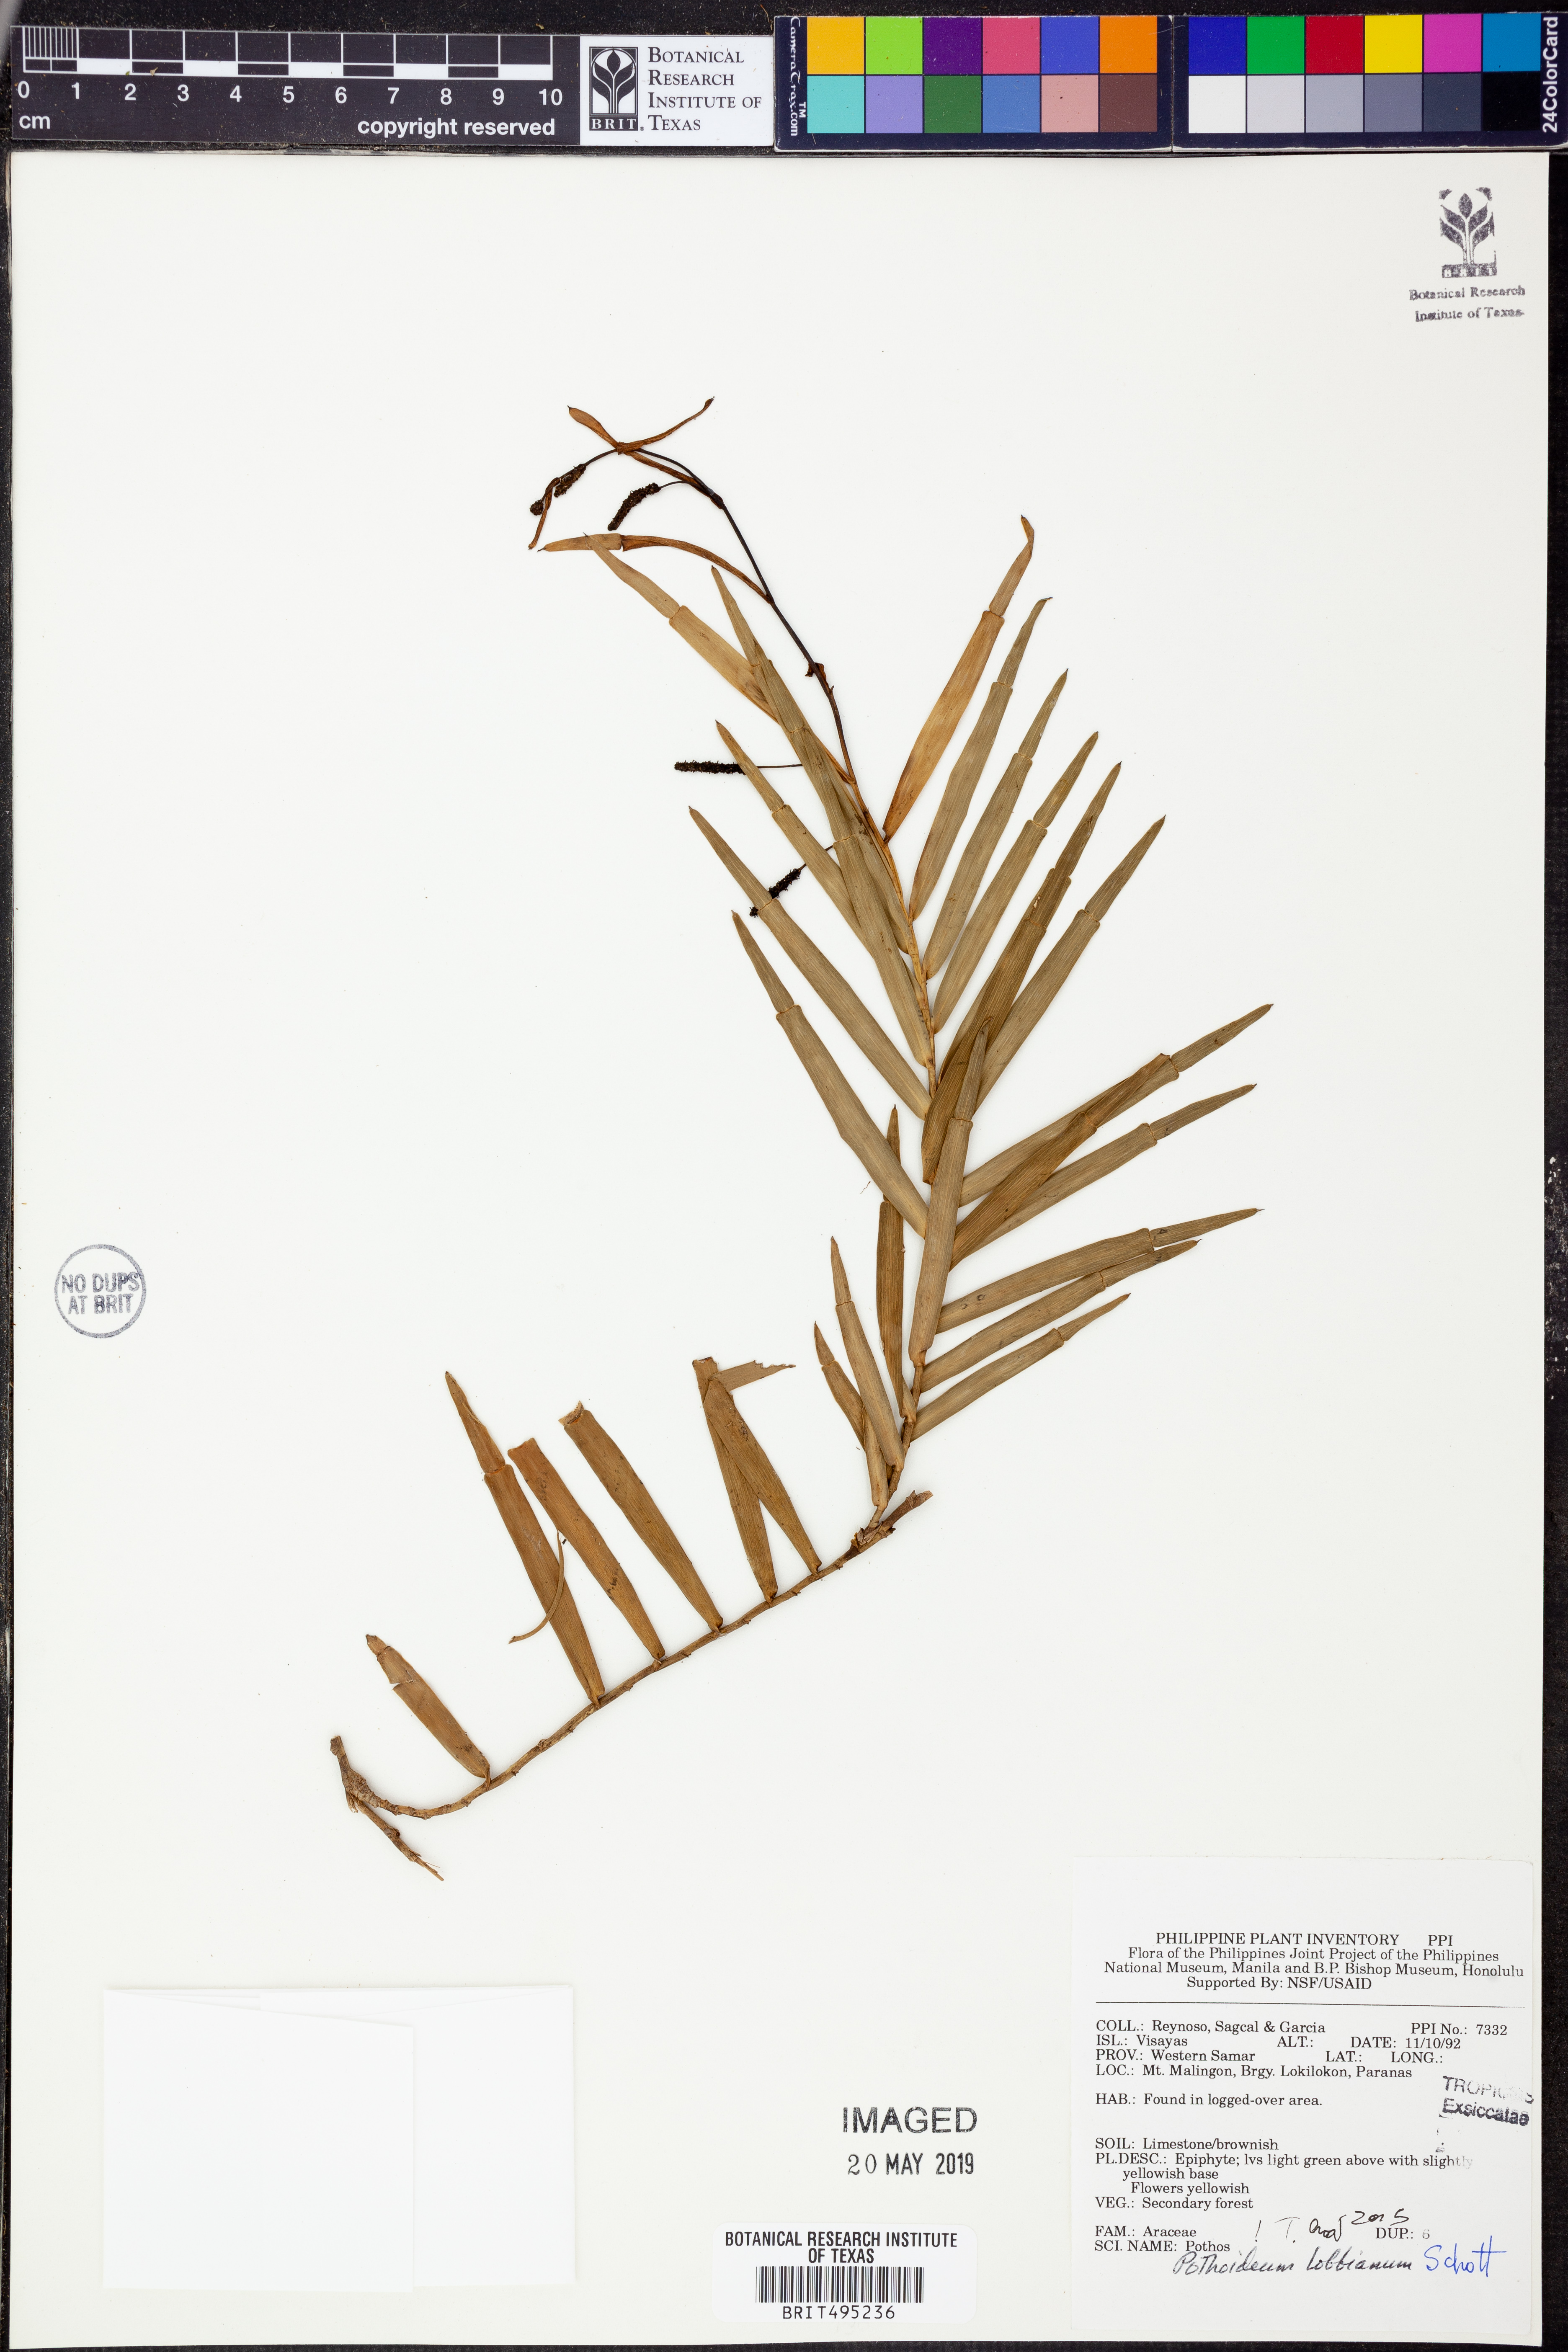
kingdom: Plantae
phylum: Tracheophyta
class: Liliopsida
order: Alismatales
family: Araceae
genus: Pothoidium
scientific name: Pothoidium lobbianum
